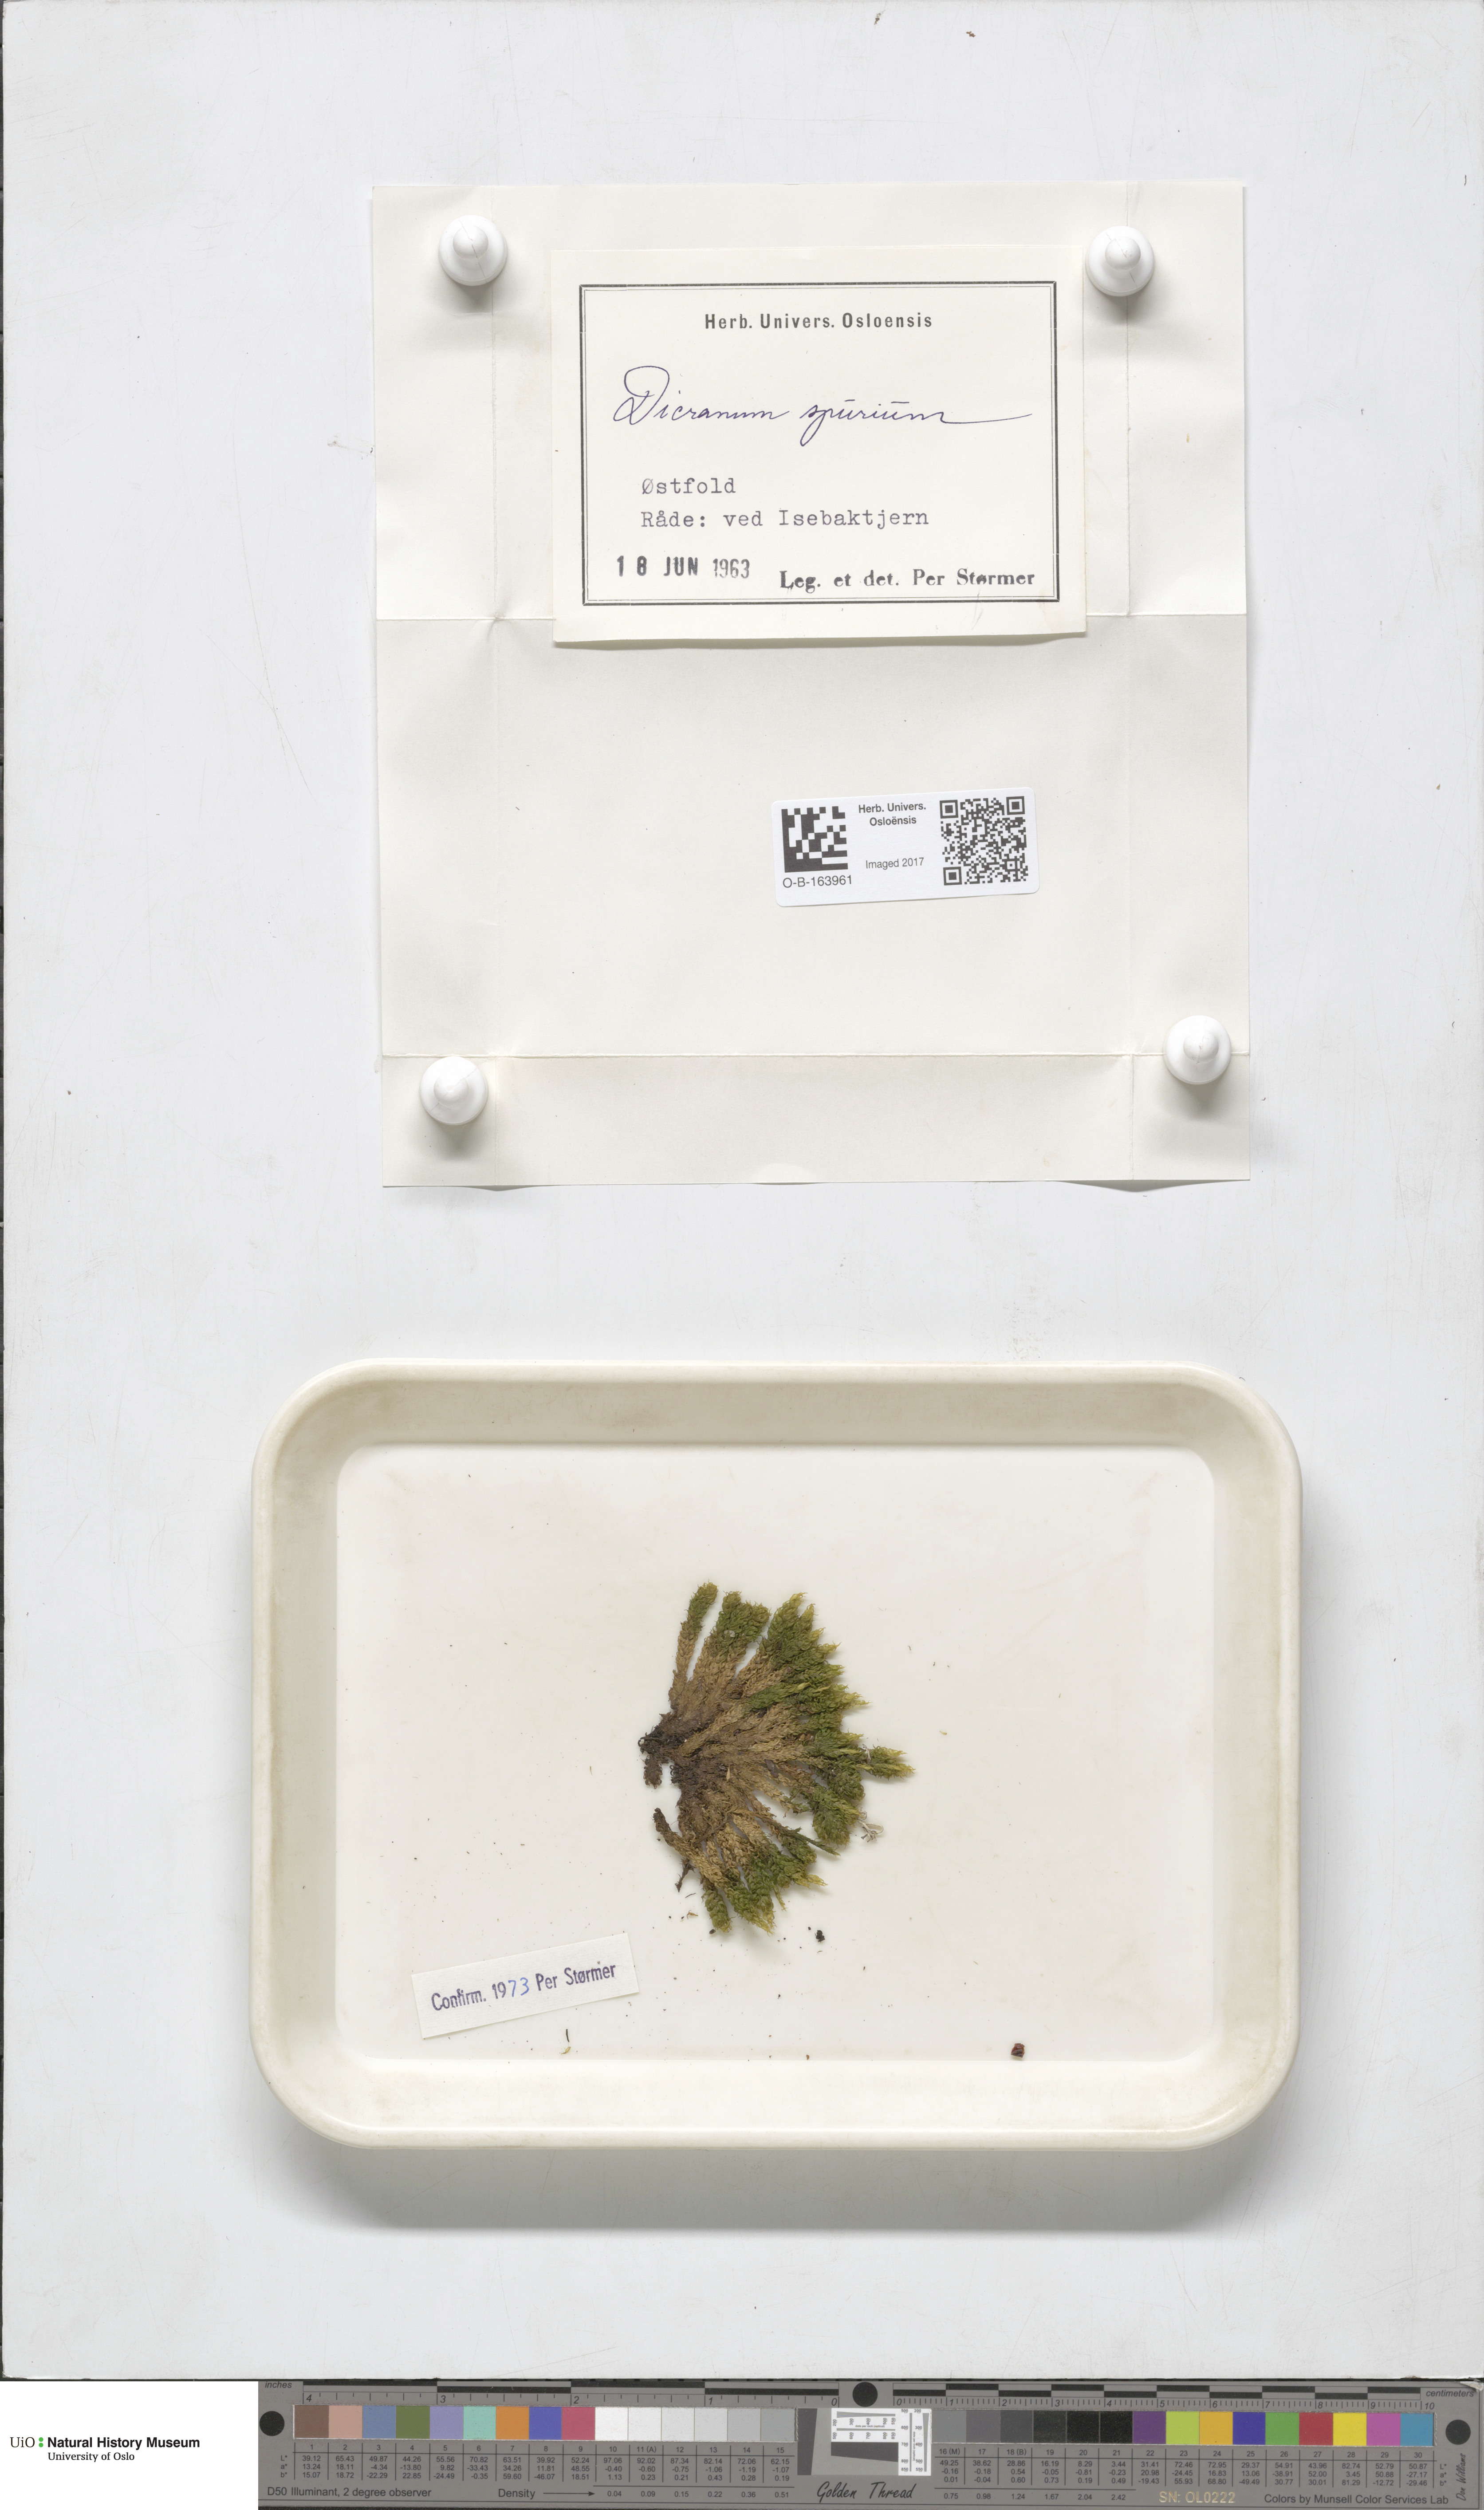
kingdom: Plantae
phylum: Bryophyta
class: Bryopsida
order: Dicranales
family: Dicranaceae
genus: Dicranum
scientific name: Dicranum spurium
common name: Spurred broom moss
